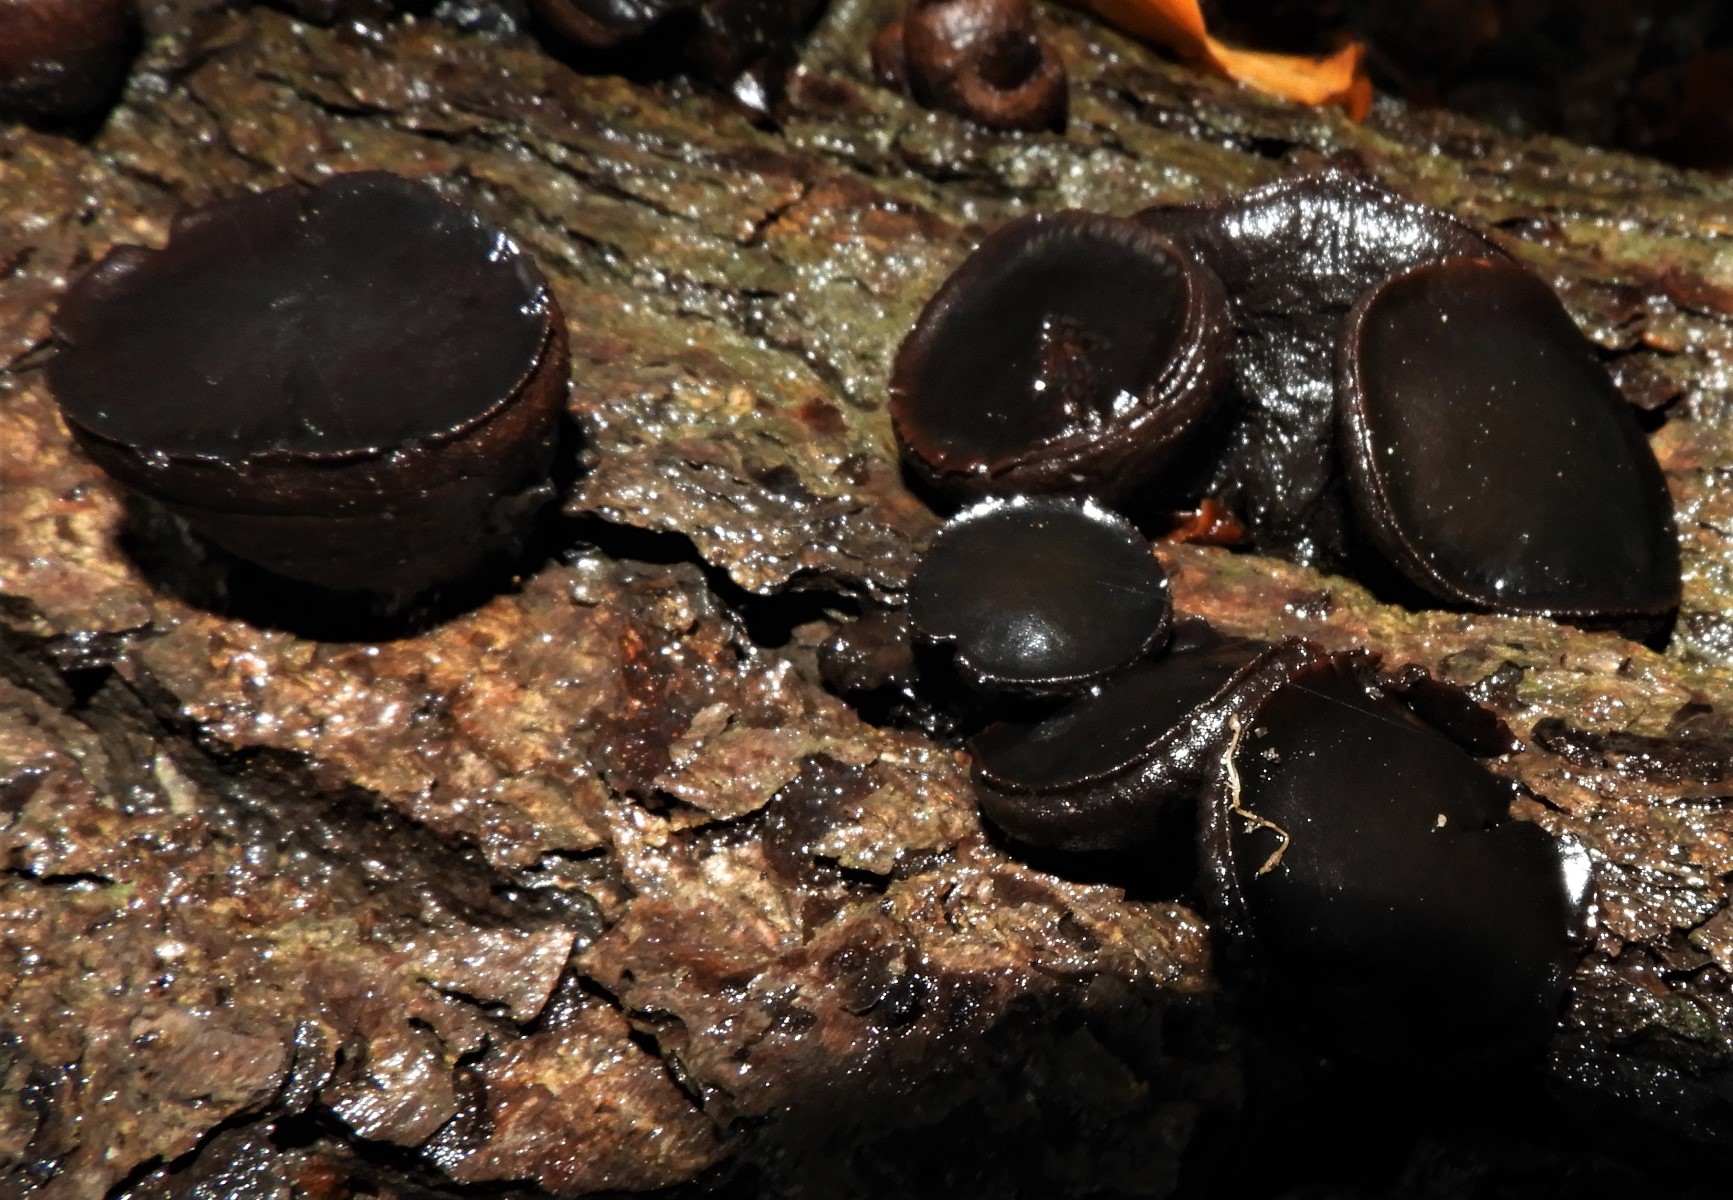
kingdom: Fungi
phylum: Ascomycota
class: Leotiomycetes
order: Phacidiales
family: Phacidiaceae
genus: Bulgaria
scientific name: Bulgaria inquinans
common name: afsmittende topsvamp
